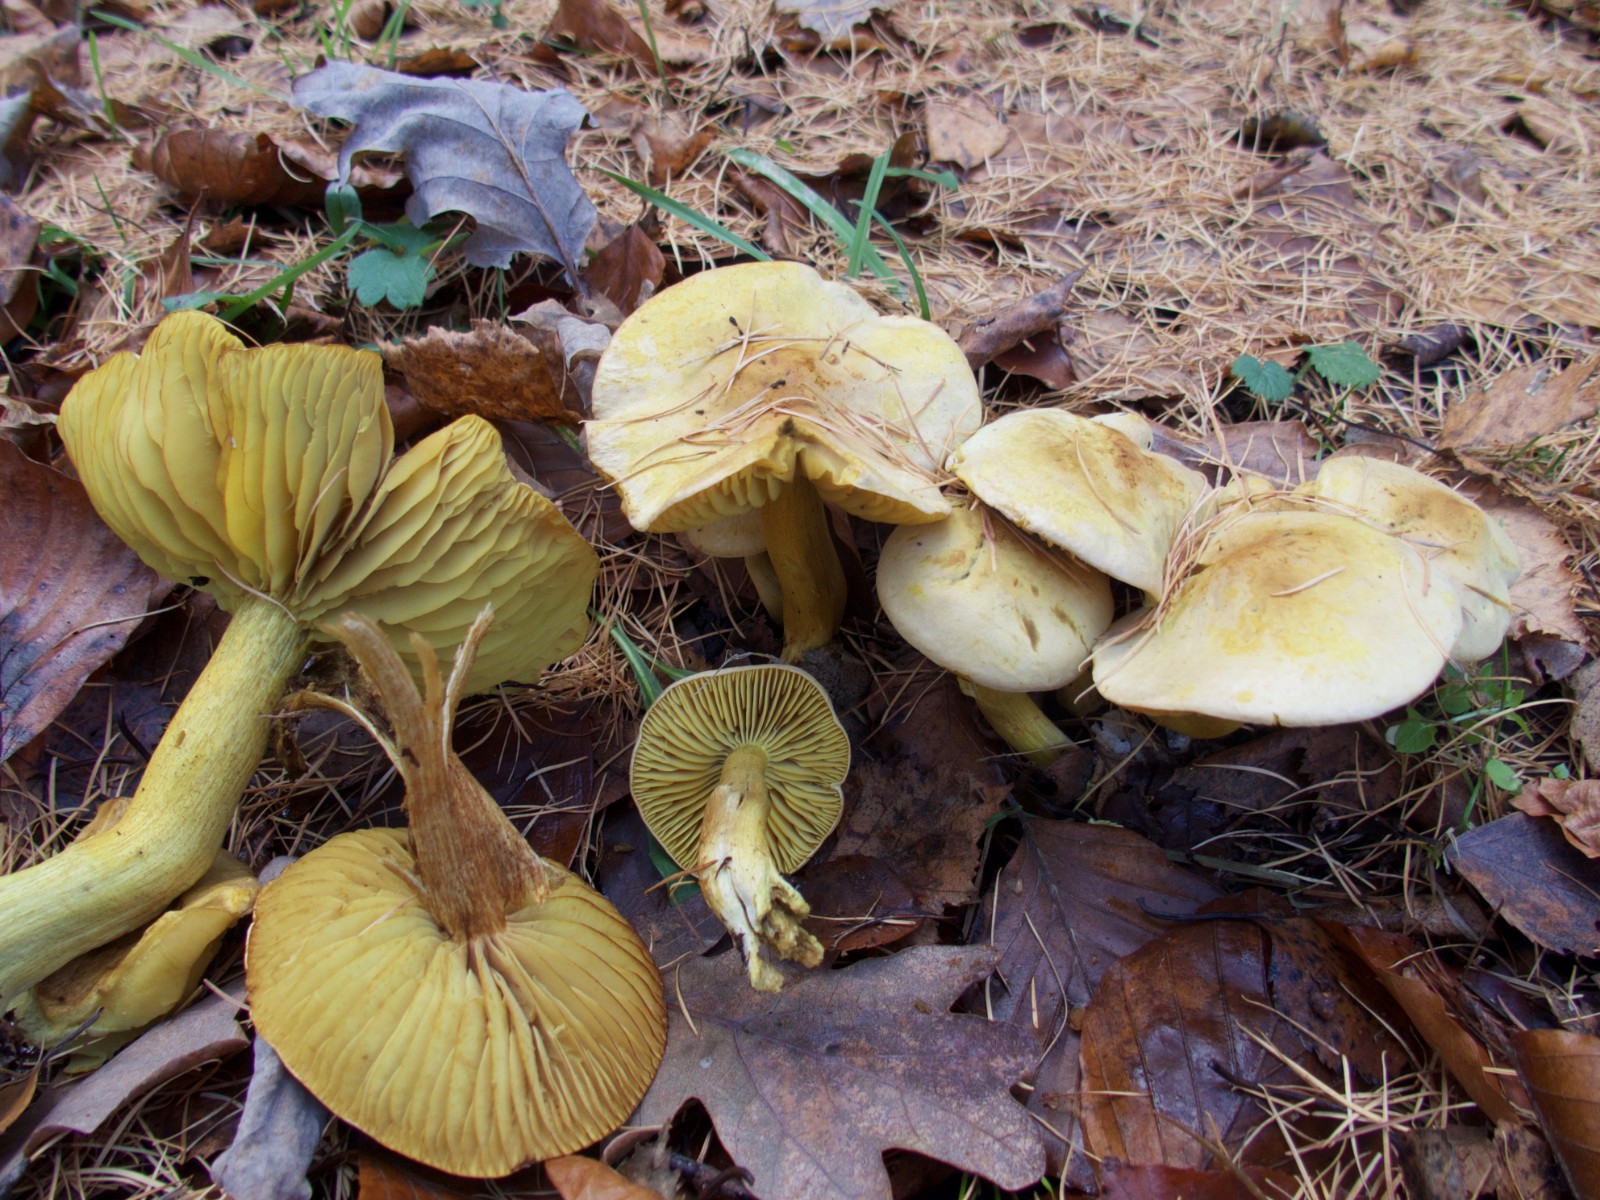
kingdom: Fungi
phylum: Basidiomycota
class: Agaricomycetes
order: Agaricales
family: Tricholomataceae
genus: Tricholoma
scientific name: Tricholoma sulphureum
